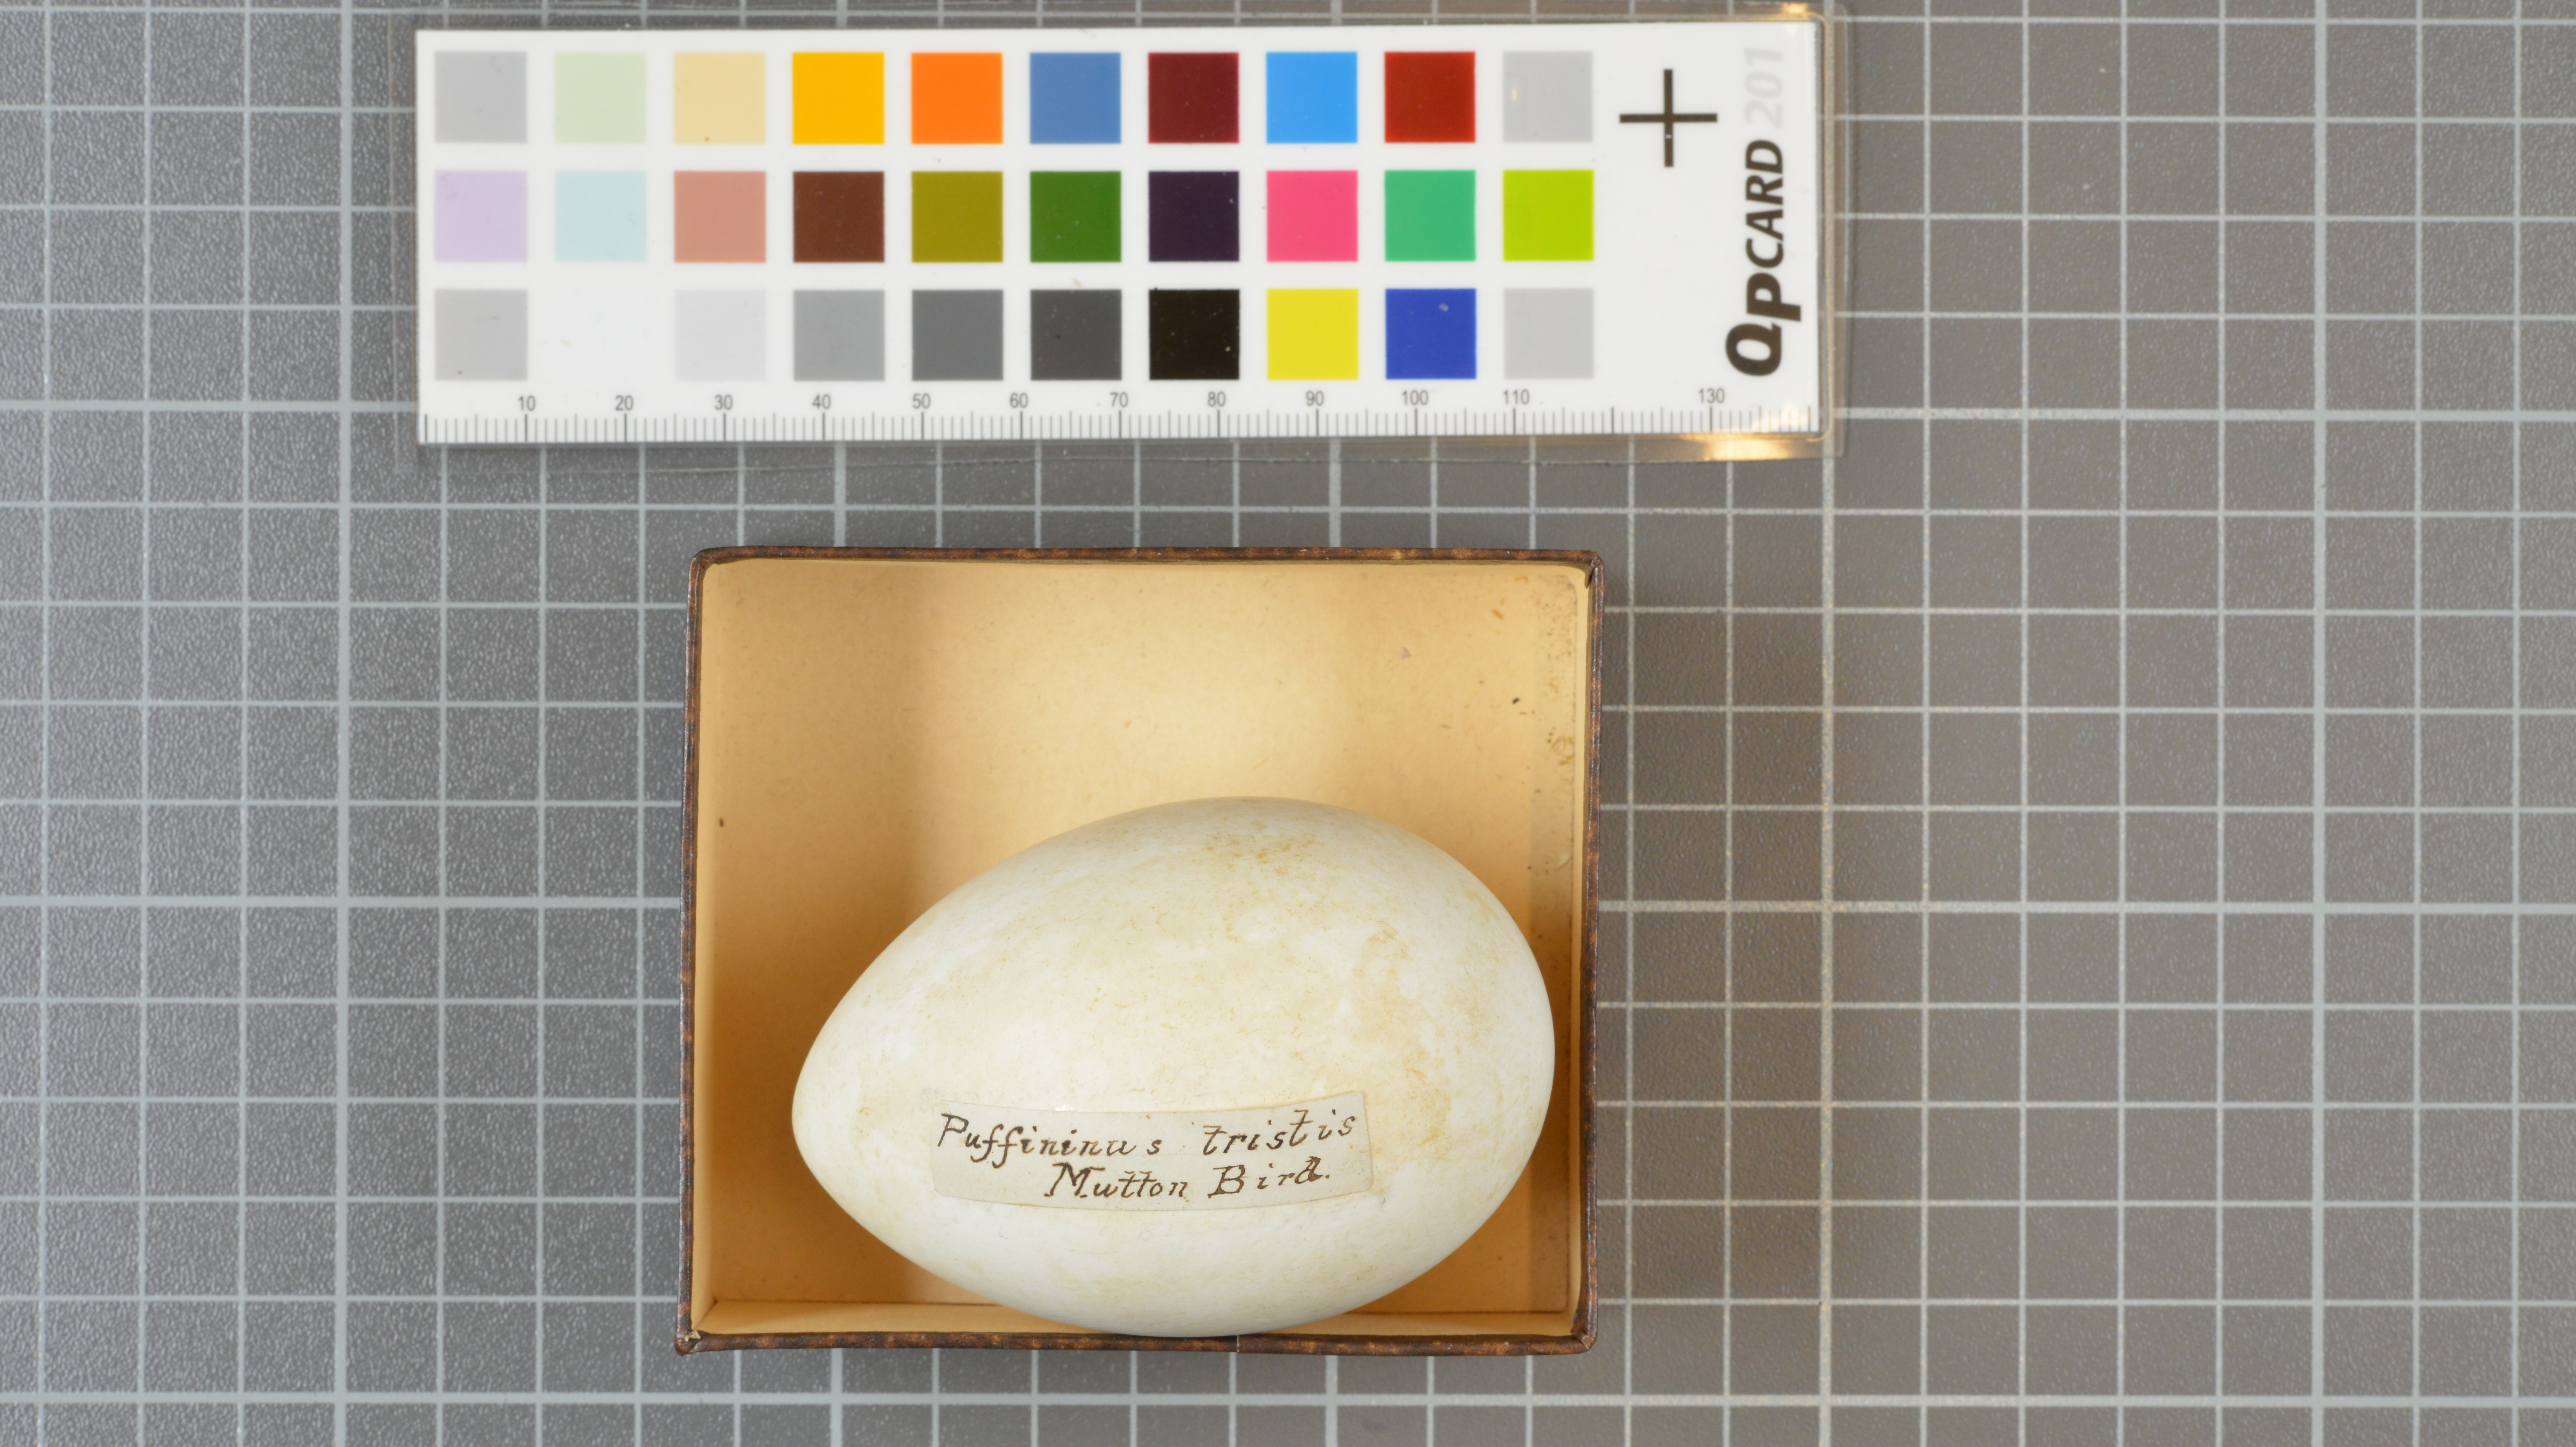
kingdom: Animalia
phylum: Chordata
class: Aves
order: Procellariiformes
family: Procellariidae
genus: Puffinus
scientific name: Puffinus griseus
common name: Sooty shearwater
